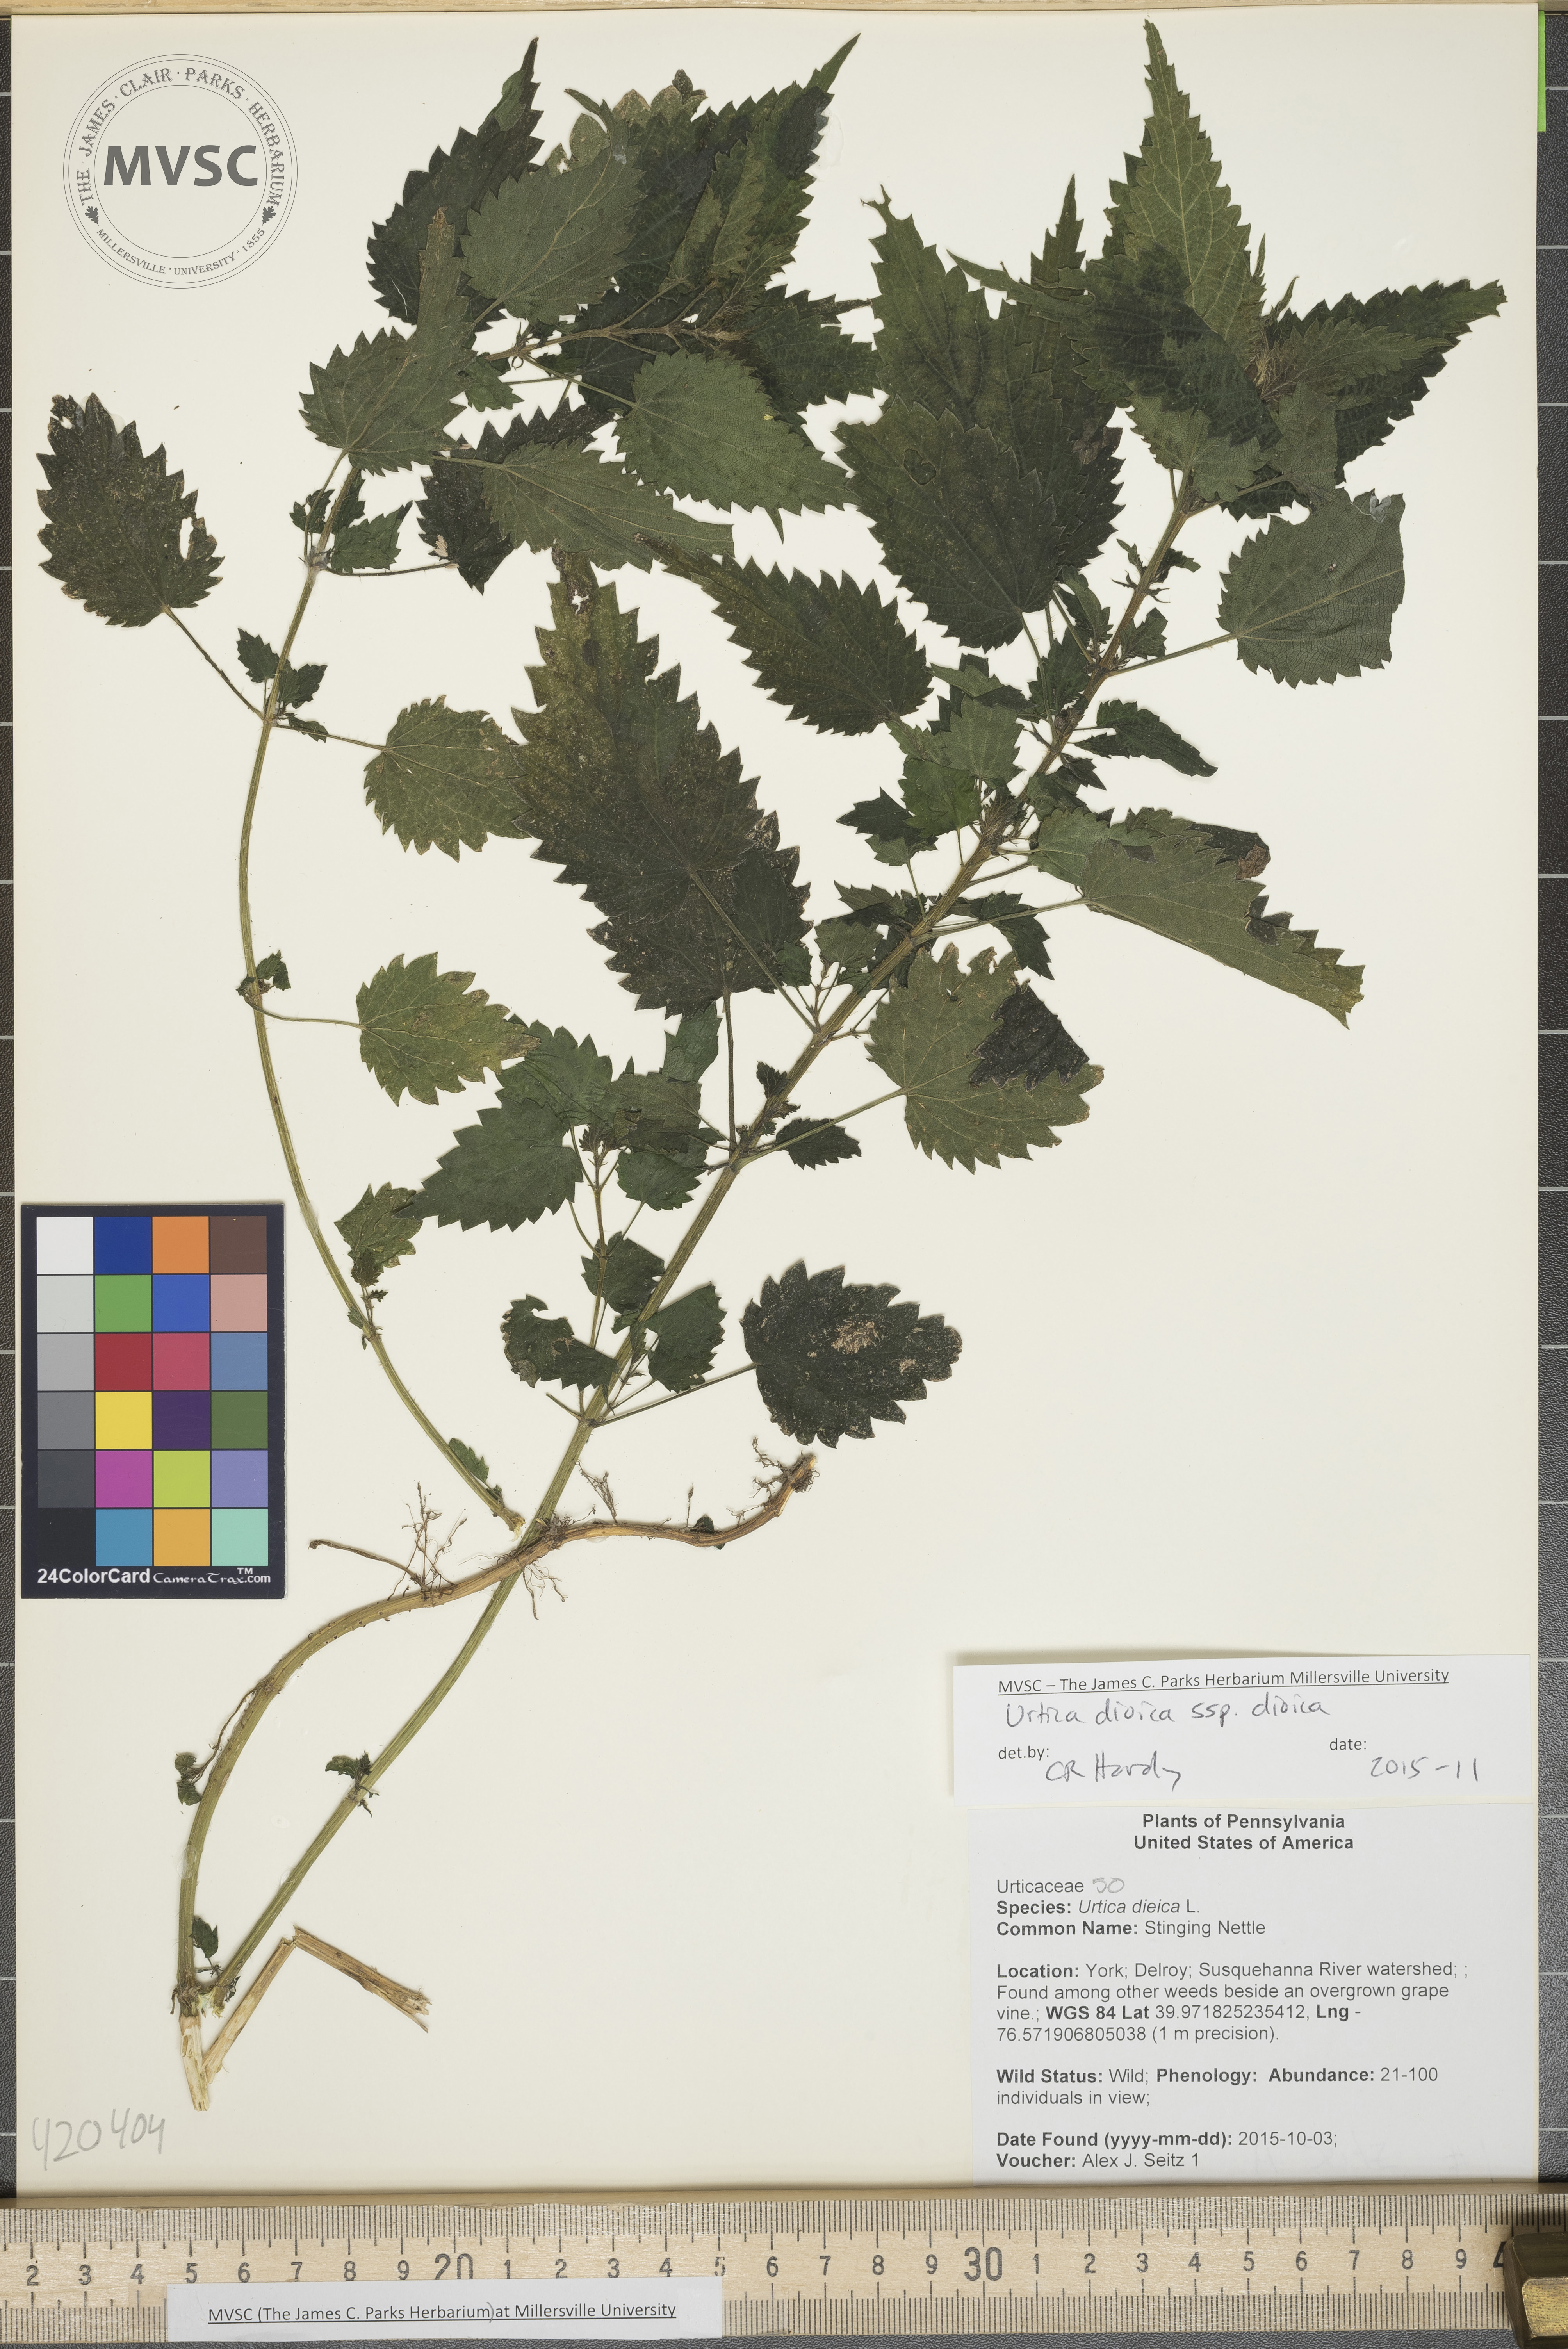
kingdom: Plantae
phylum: Tracheophyta
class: Magnoliopsida
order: Rosales
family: Urticaceae
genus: Urtica
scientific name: Urtica dioica
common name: Stinging Nettle
